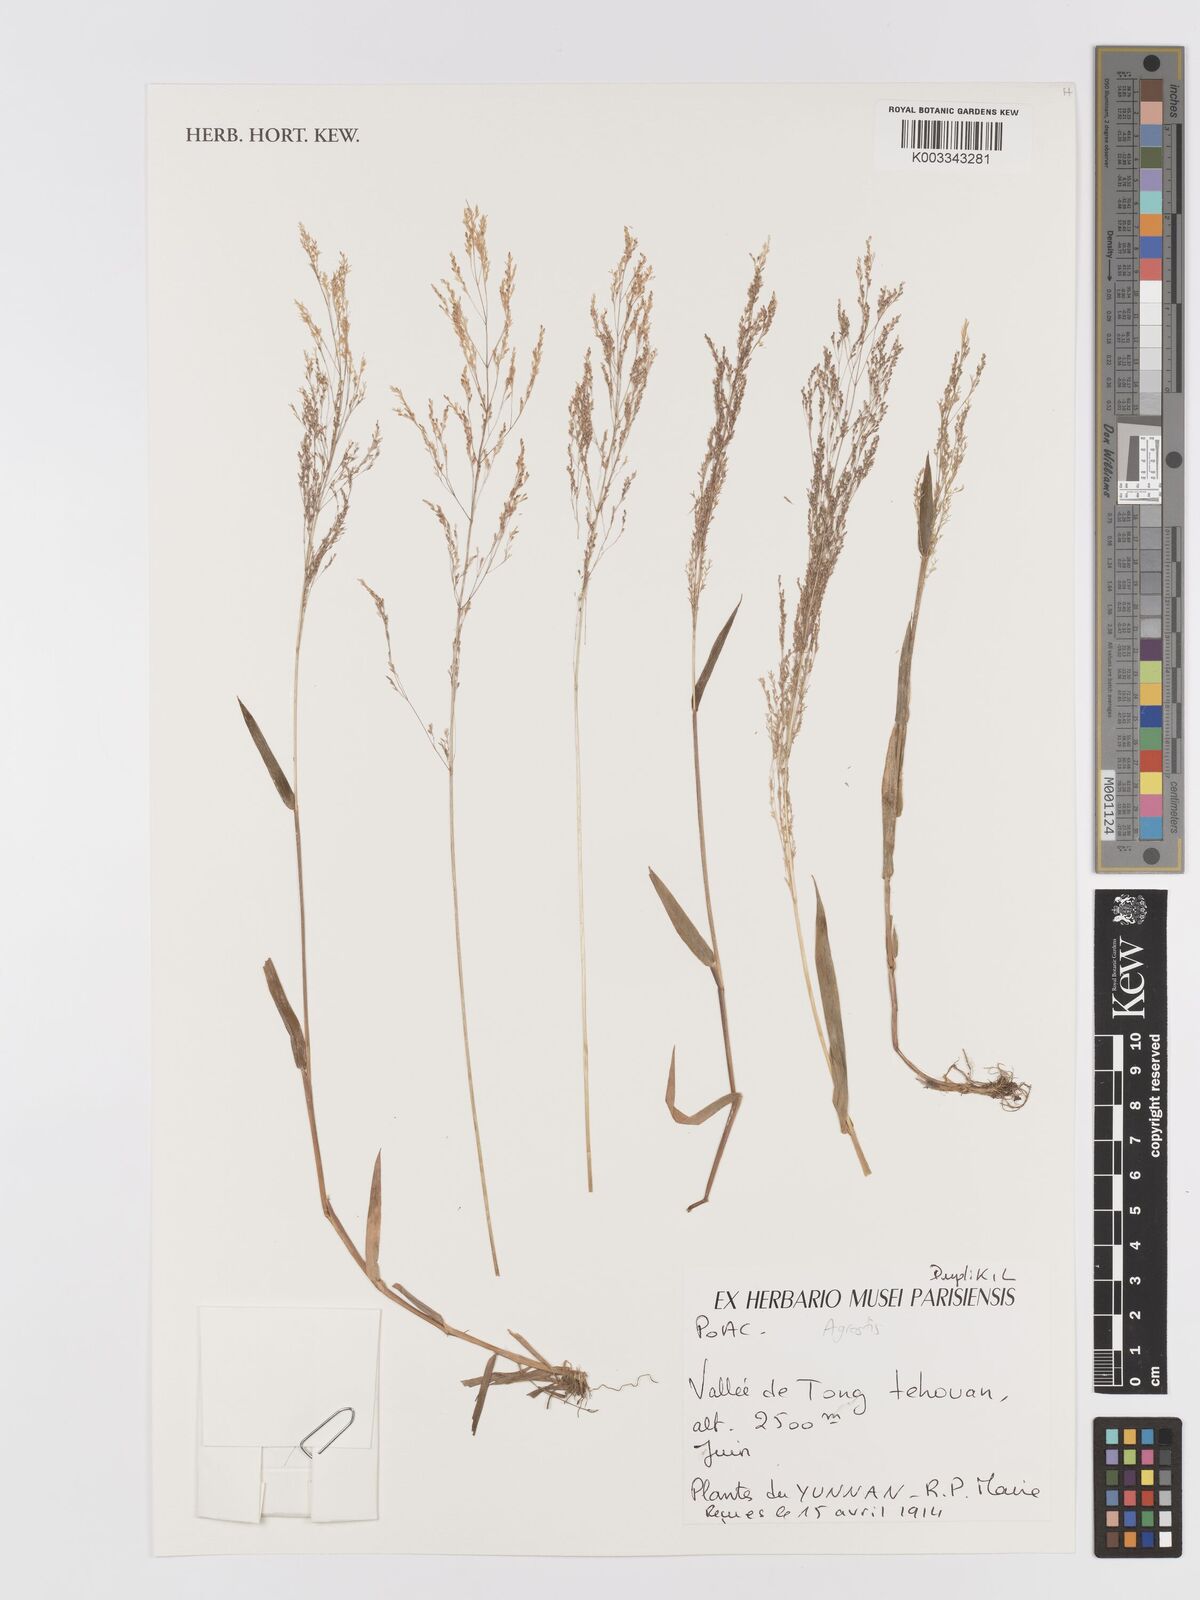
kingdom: Plantae
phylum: Tracheophyta
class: Liliopsida
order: Poales
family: Poaceae
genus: Agrostis
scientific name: Agrostis
